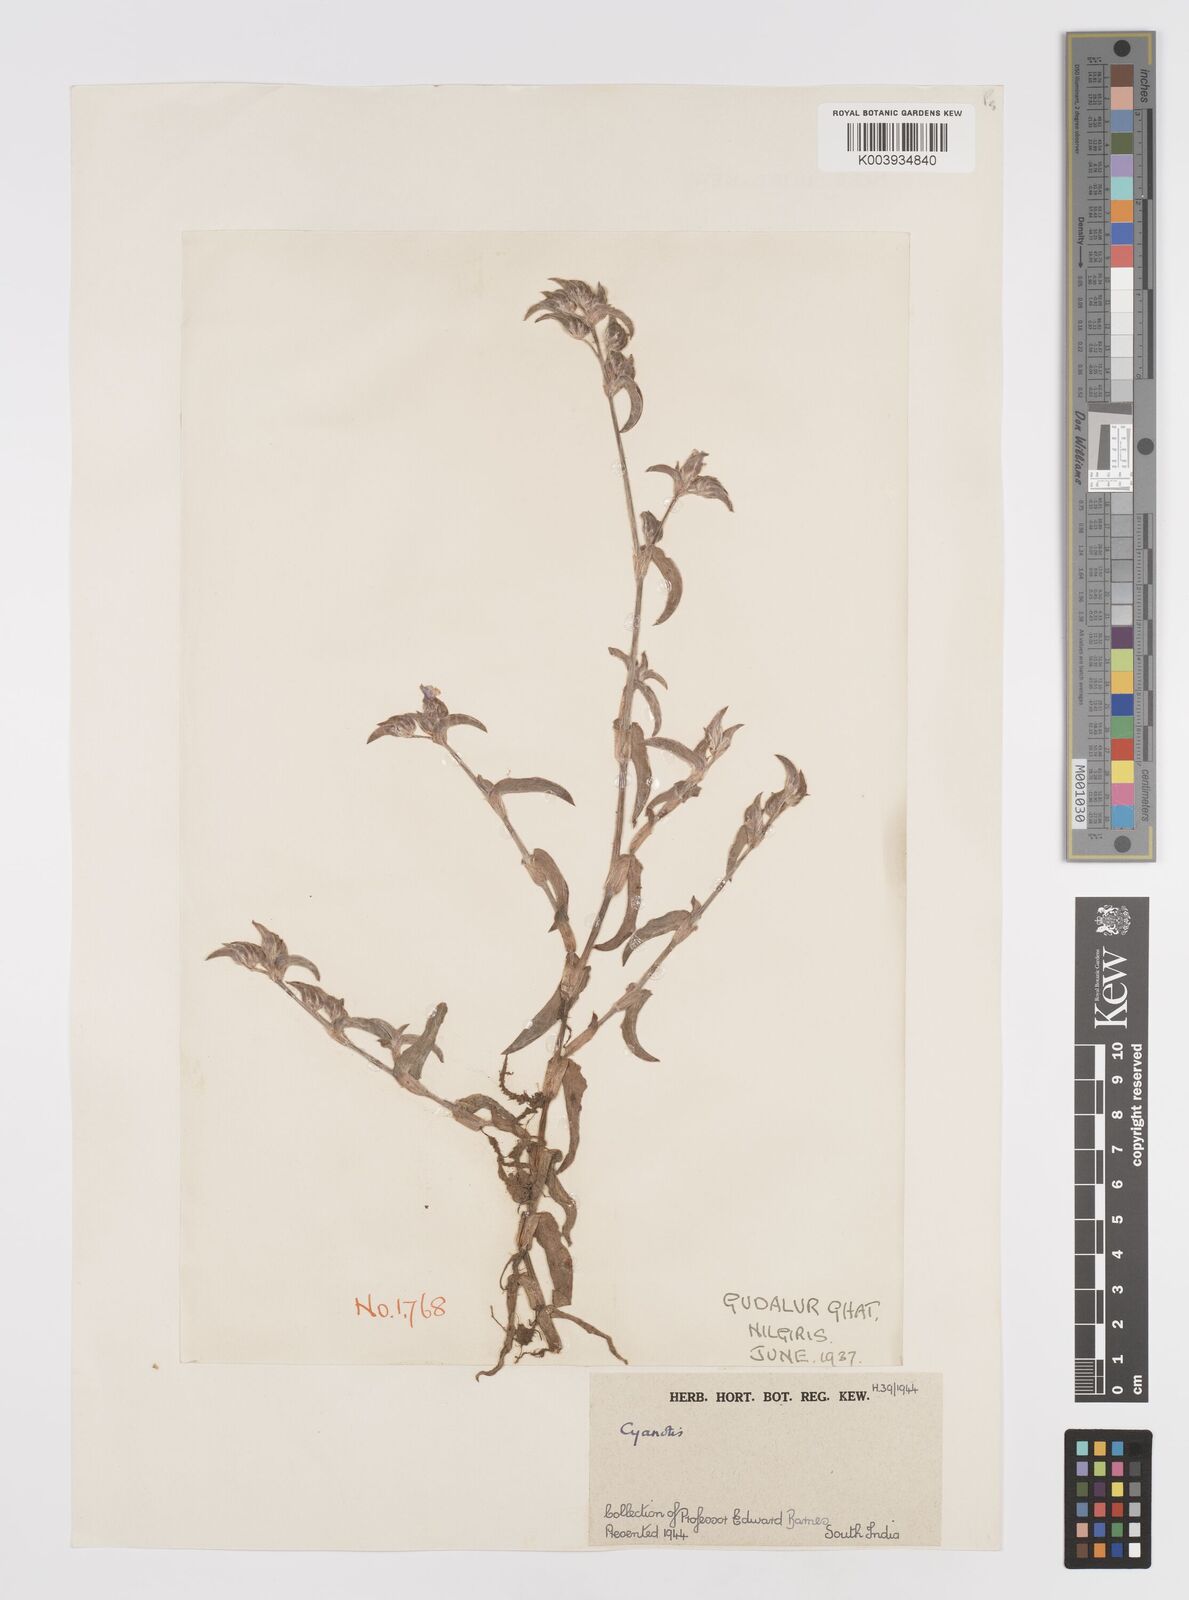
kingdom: Plantae
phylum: Tracheophyta
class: Liliopsida
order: Commelinales
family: Commelinaceae
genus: Cyanotis
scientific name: Cyanotis
